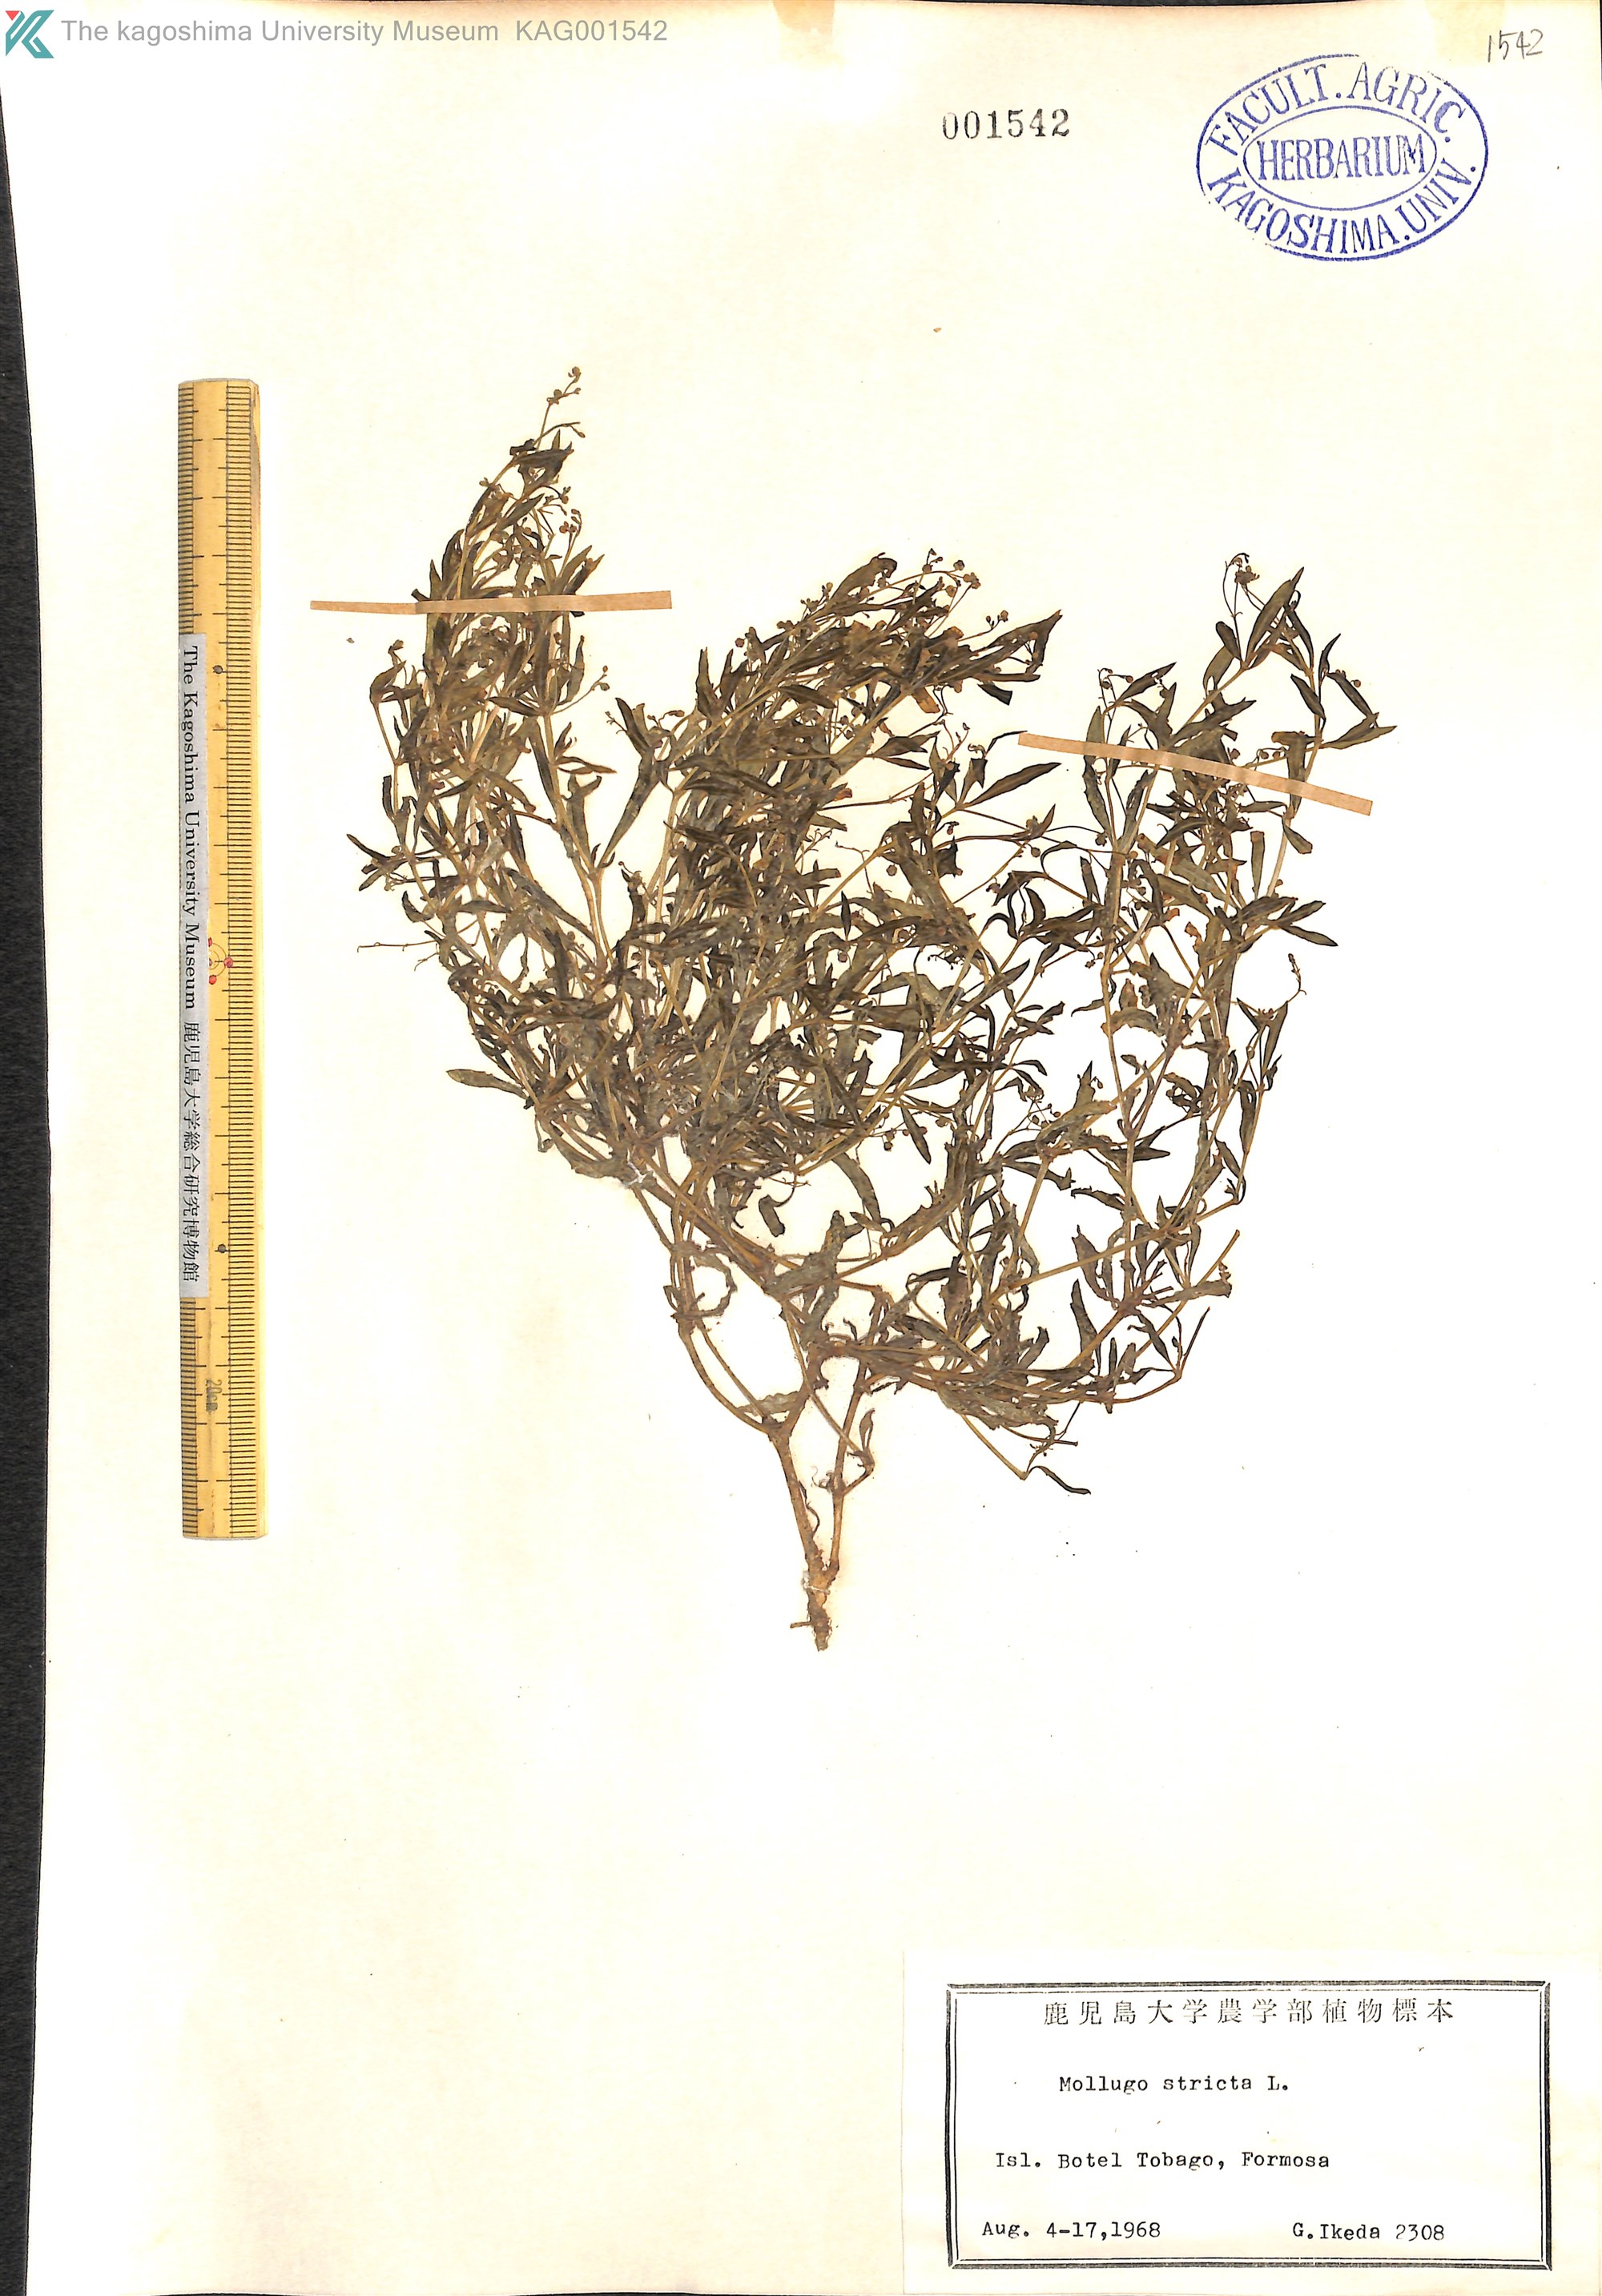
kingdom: Plantae
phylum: Tracheophyta
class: Magnoliopsida
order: Caryophyllales
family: Molluginaceae
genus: Trigastrotheca
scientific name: Trigastrotheca stricta
